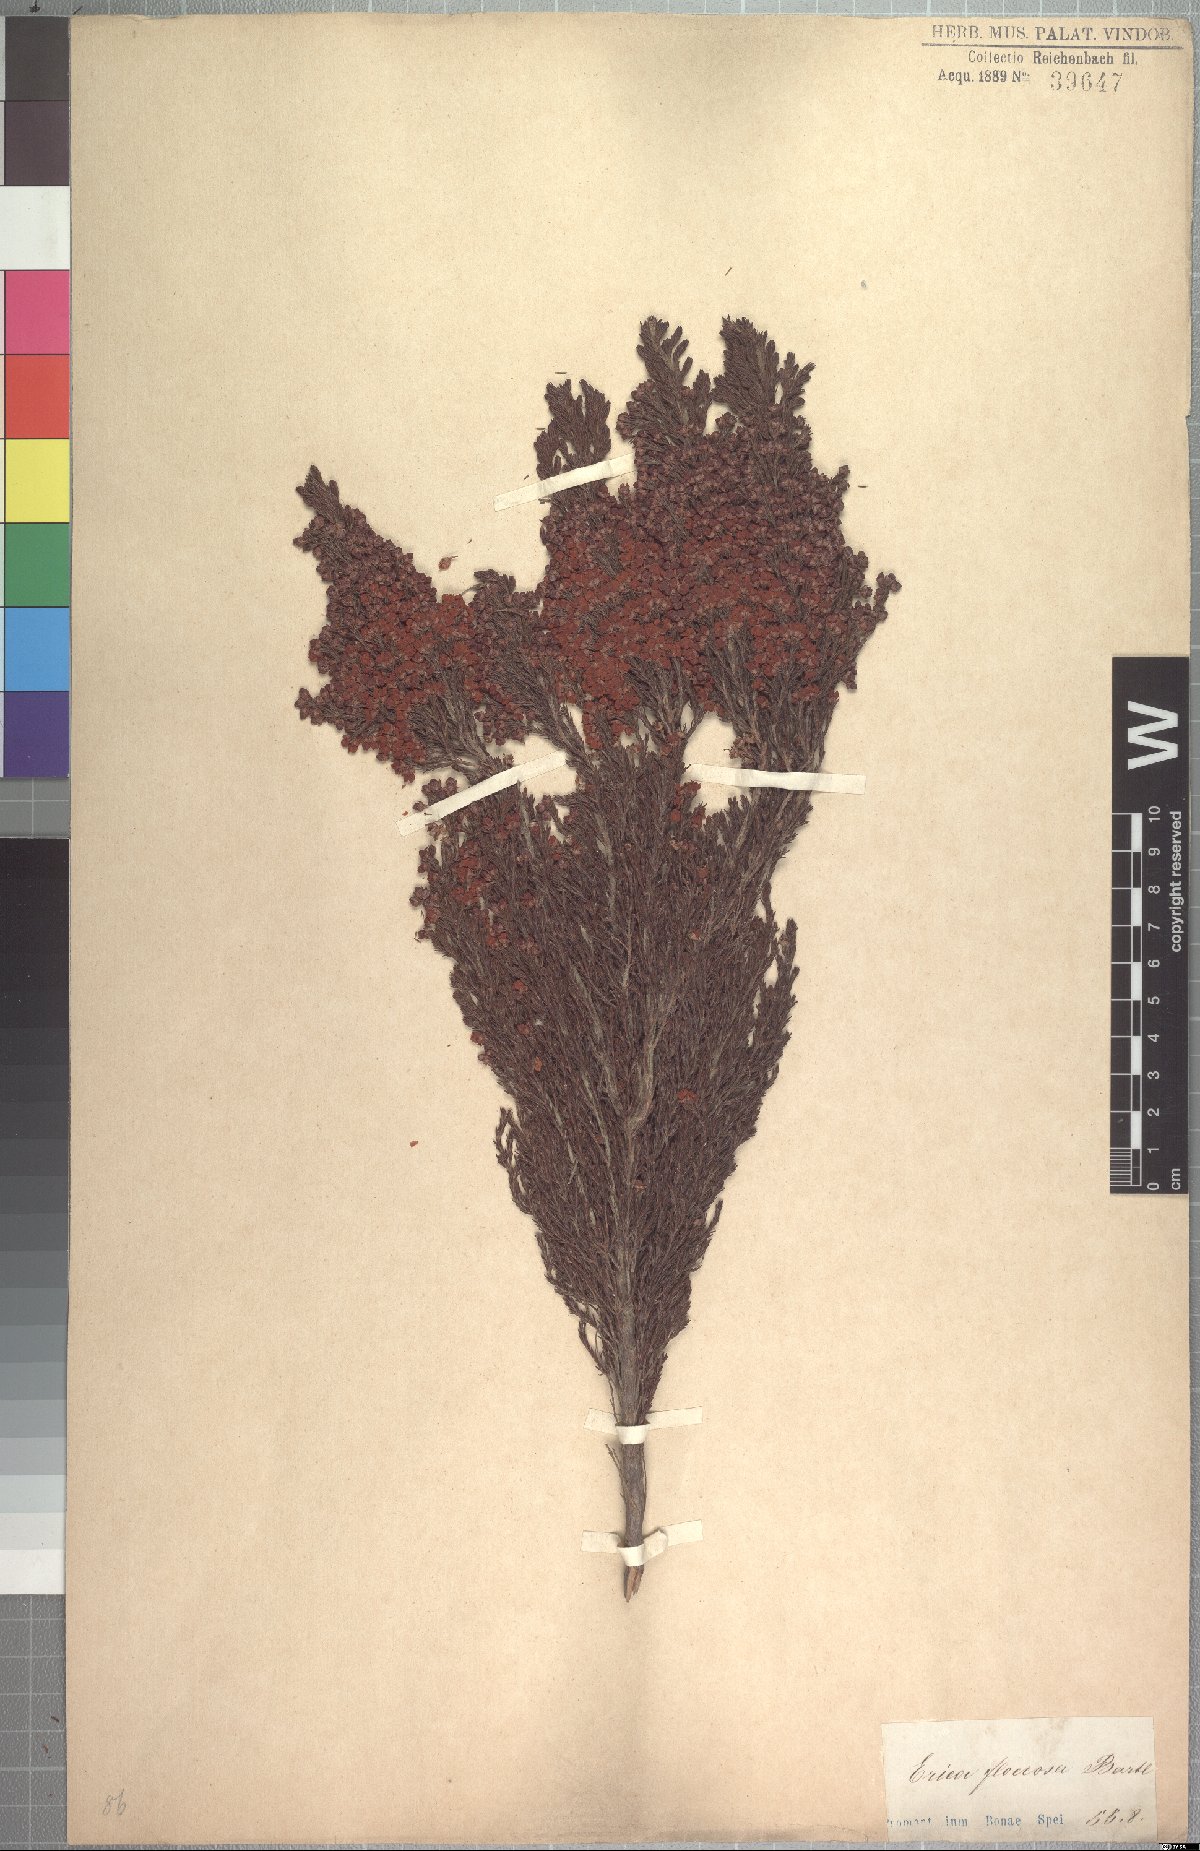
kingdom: Plantae
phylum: Tracheophyta
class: Magnoliopsida
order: Ericales
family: Ericaceae
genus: Erica
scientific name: Erica floccifera
